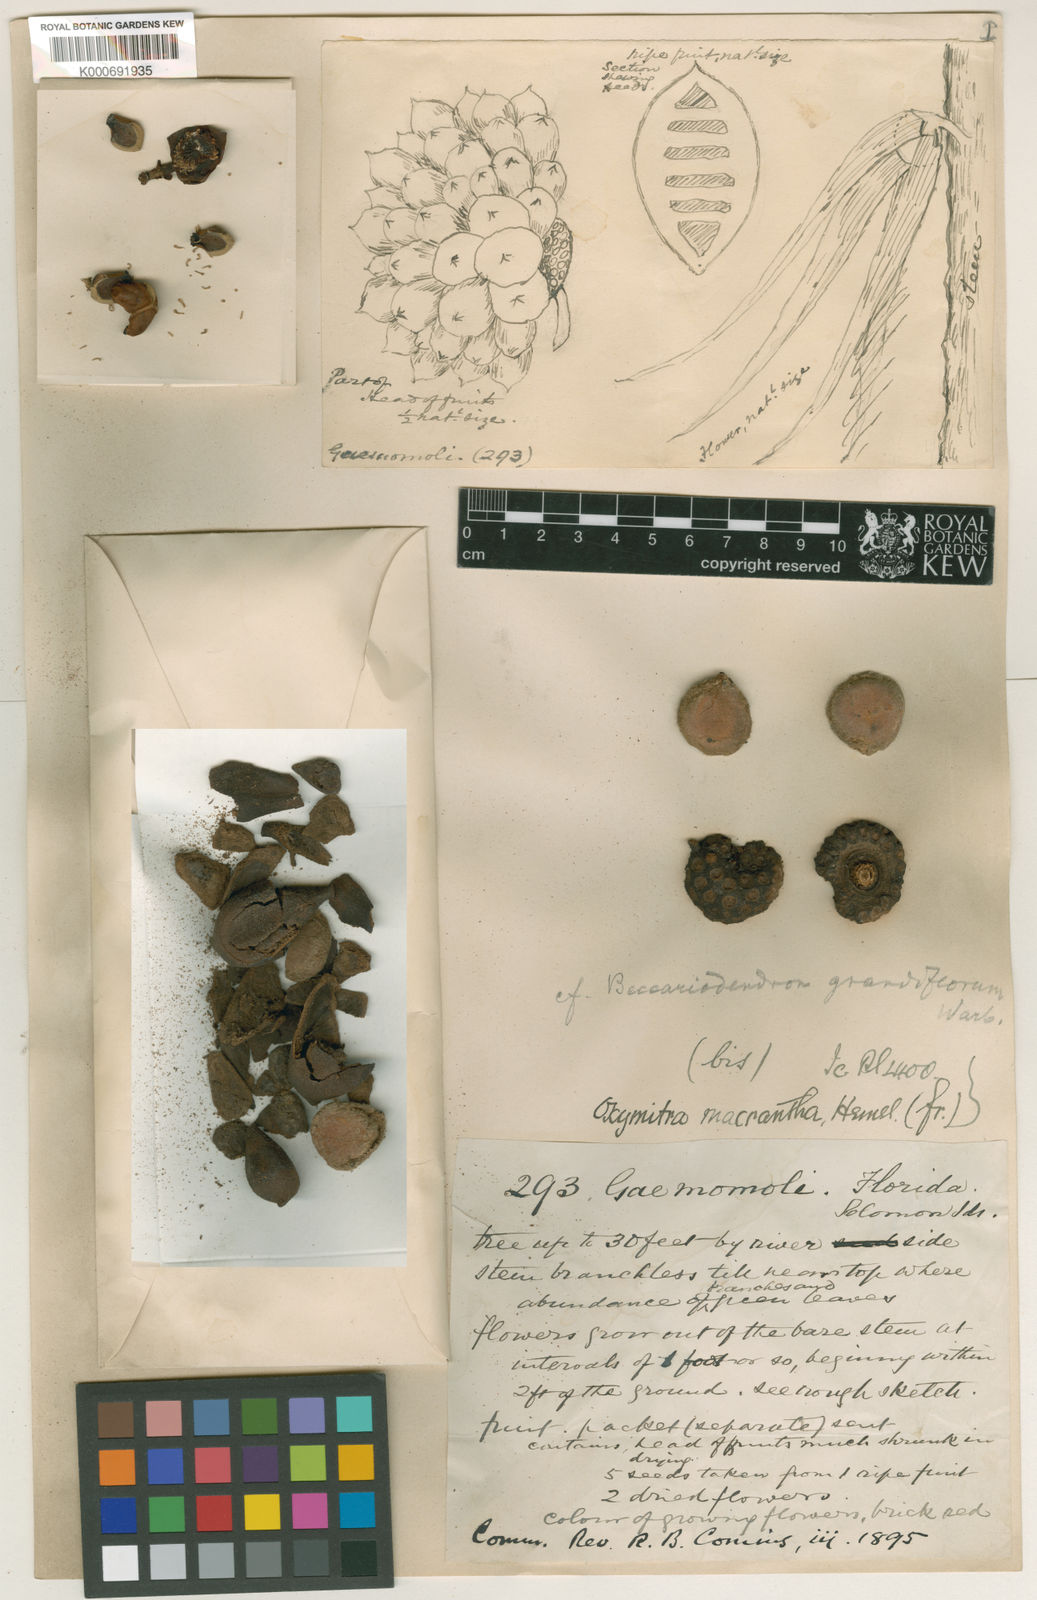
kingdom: Plantae
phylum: Tracheophyta
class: Magnoliopsida
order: Magnoliales
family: Annonaceae
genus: Goniothalamus
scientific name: Goniothalamus macranthus
